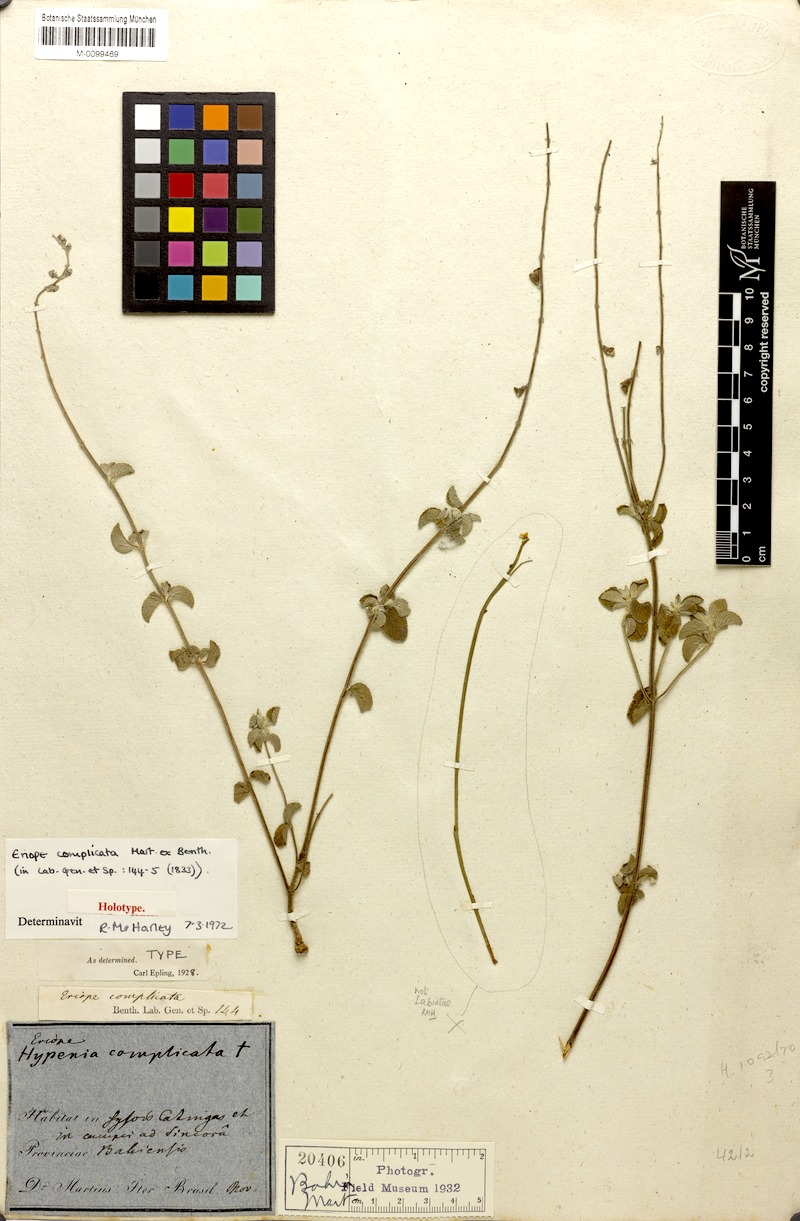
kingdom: Plantae
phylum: Tracheophyta
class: Magnoliopsida
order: Lamiales
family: Lamiaceae
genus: Eriope
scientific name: Eriope complicata
